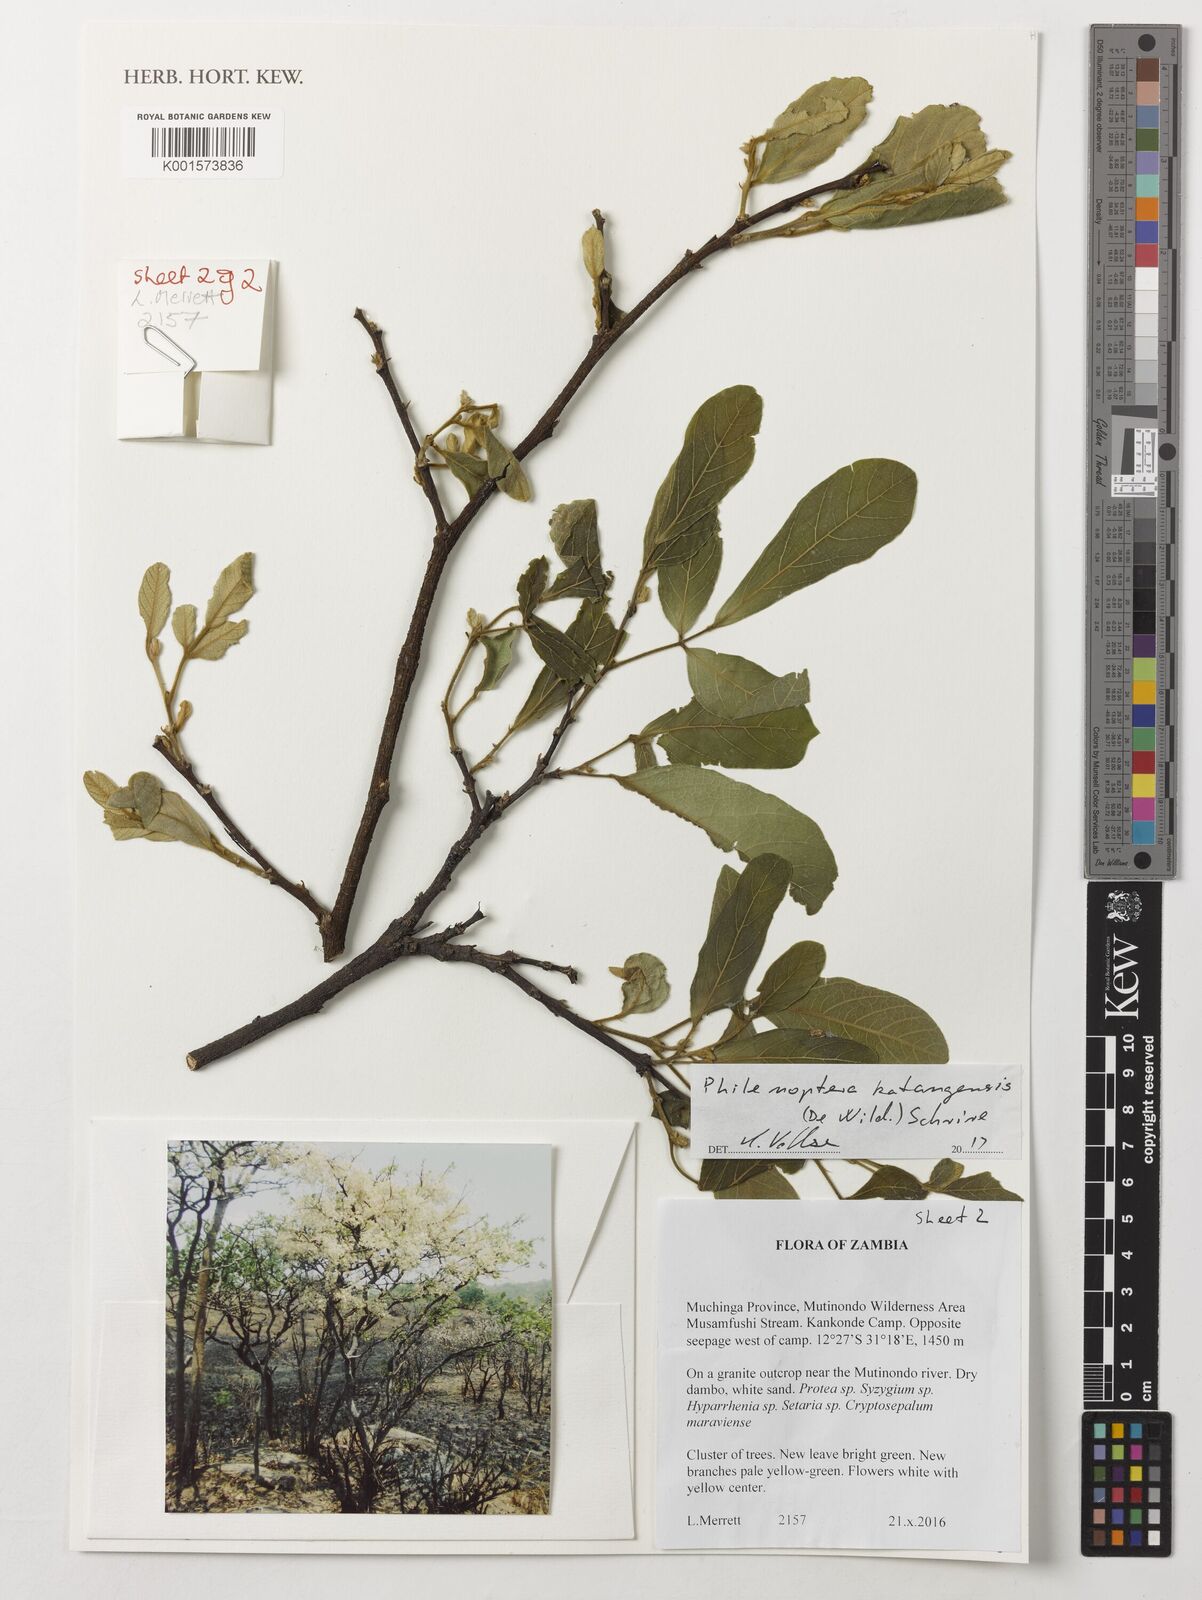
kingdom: Plantae
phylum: Tracheophyta
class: Magnoliopsida
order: Fabales
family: Fabaceae
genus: Philenoptera
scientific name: Philenoptera katangensis
